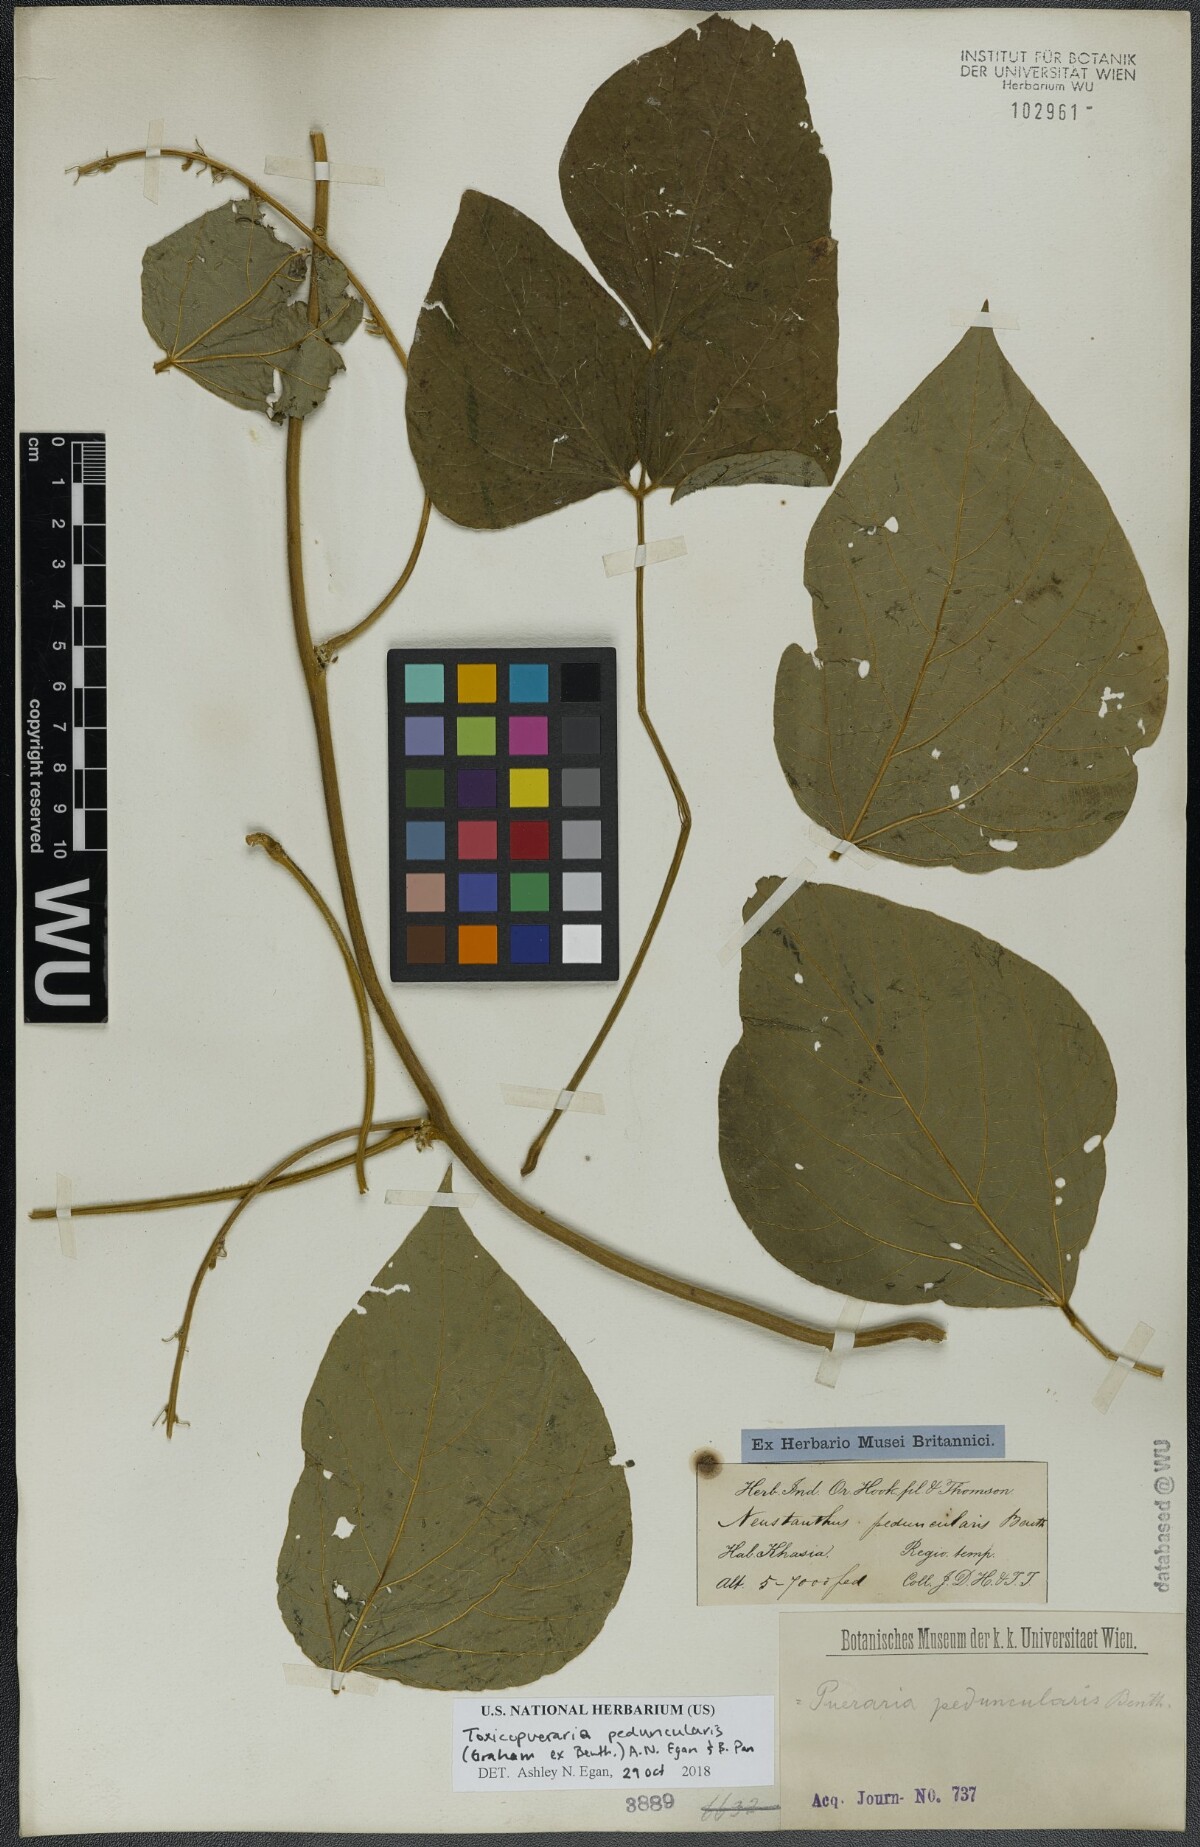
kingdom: Plantae
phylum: Tracheophyta
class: Magnoliopsida
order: Fabales
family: Fabaceae
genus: Toxicopueraria
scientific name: Toxicopueraria peduncularis
